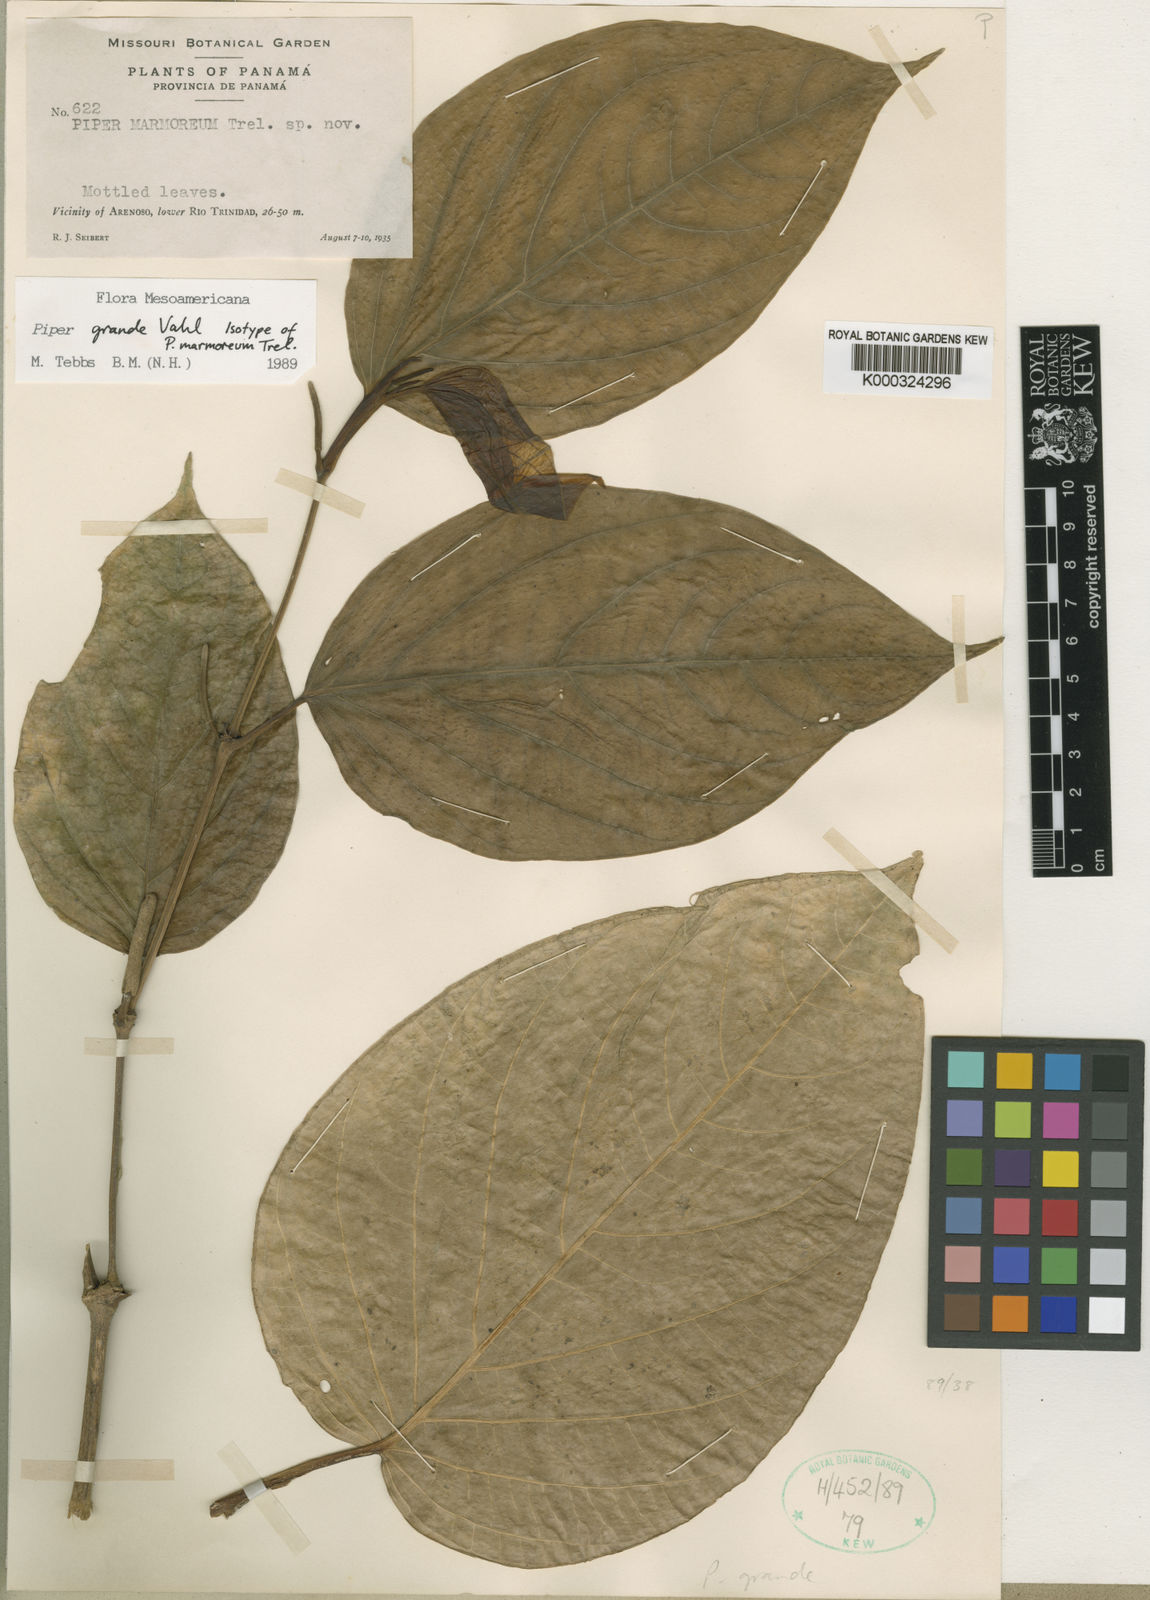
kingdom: Plantae
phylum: Tracheophyta
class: Magnoliopsida
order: Piperales
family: Piperaceae
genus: Piper
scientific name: Piper grande
